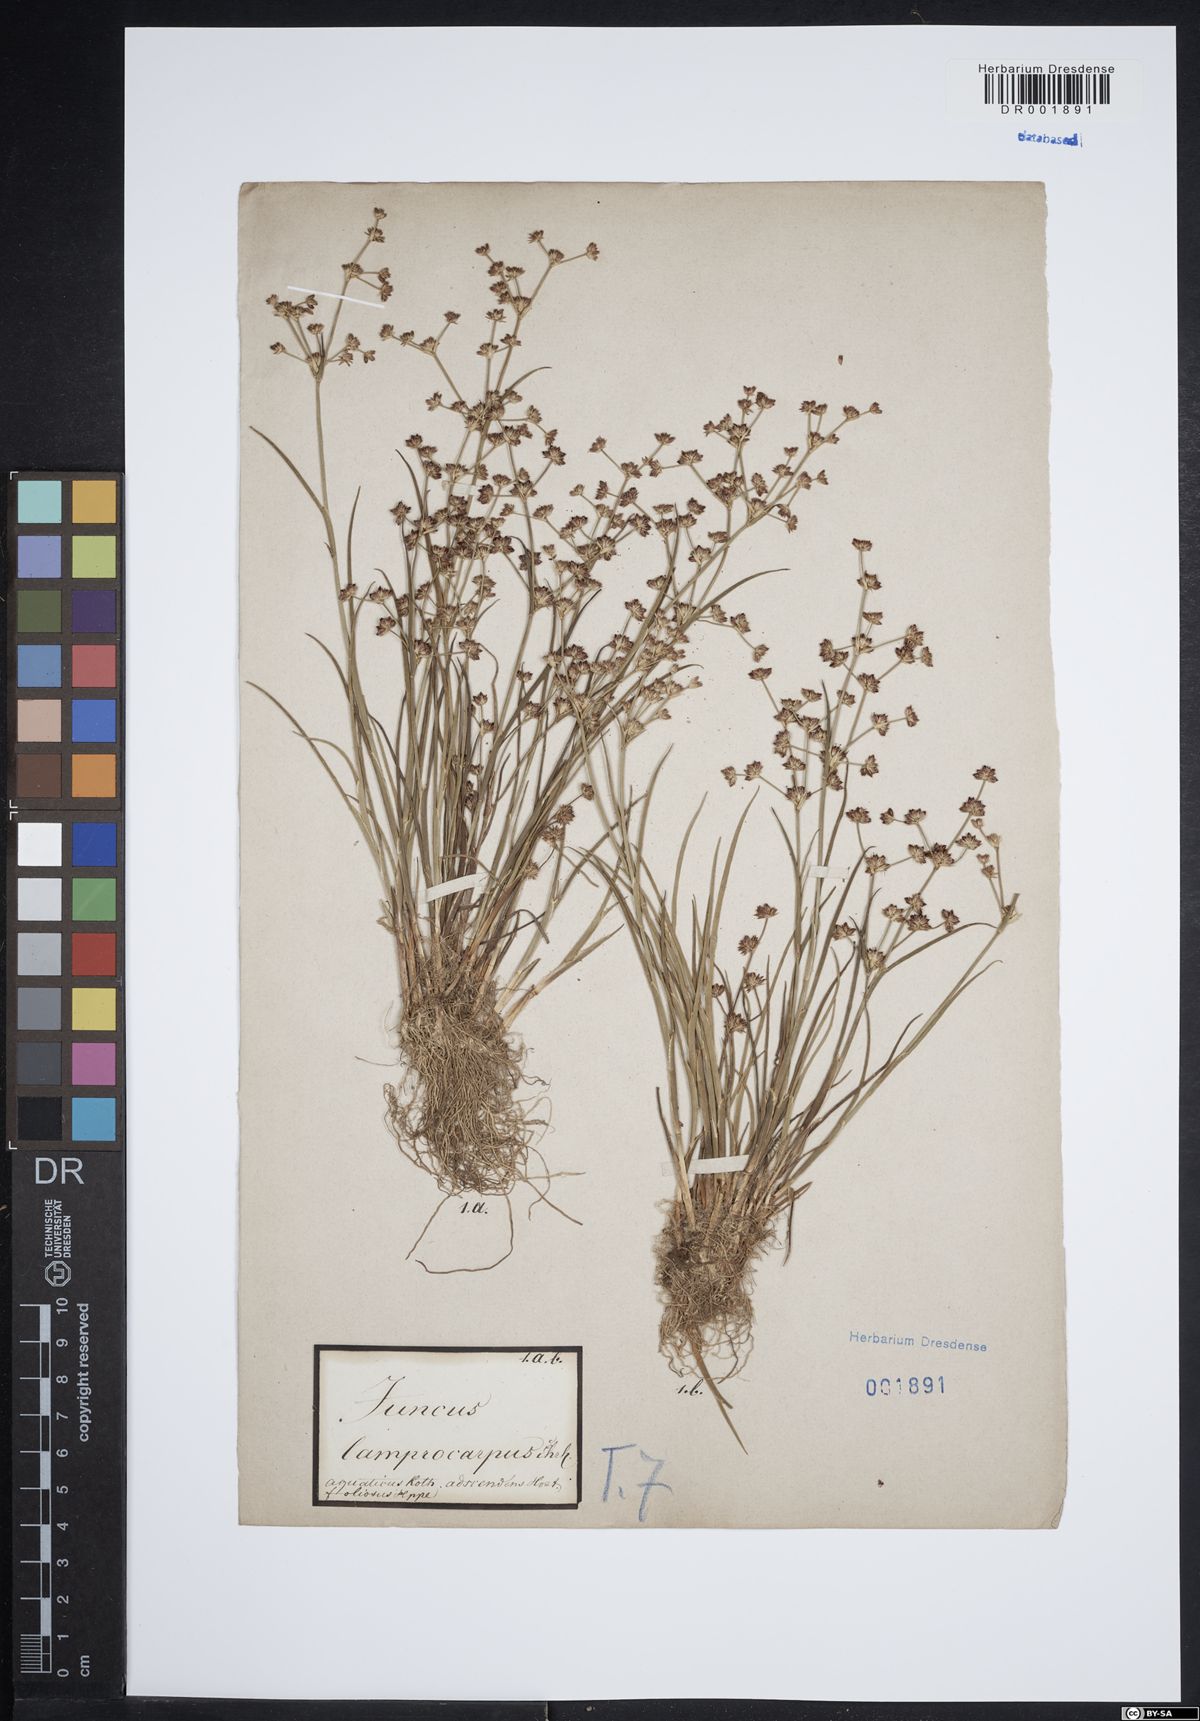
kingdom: Plantae
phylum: Tracheophyta
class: Liliopsida
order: Poales
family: Juncaceae
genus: Juncus
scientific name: Juncus articulatus
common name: Jointed rush
